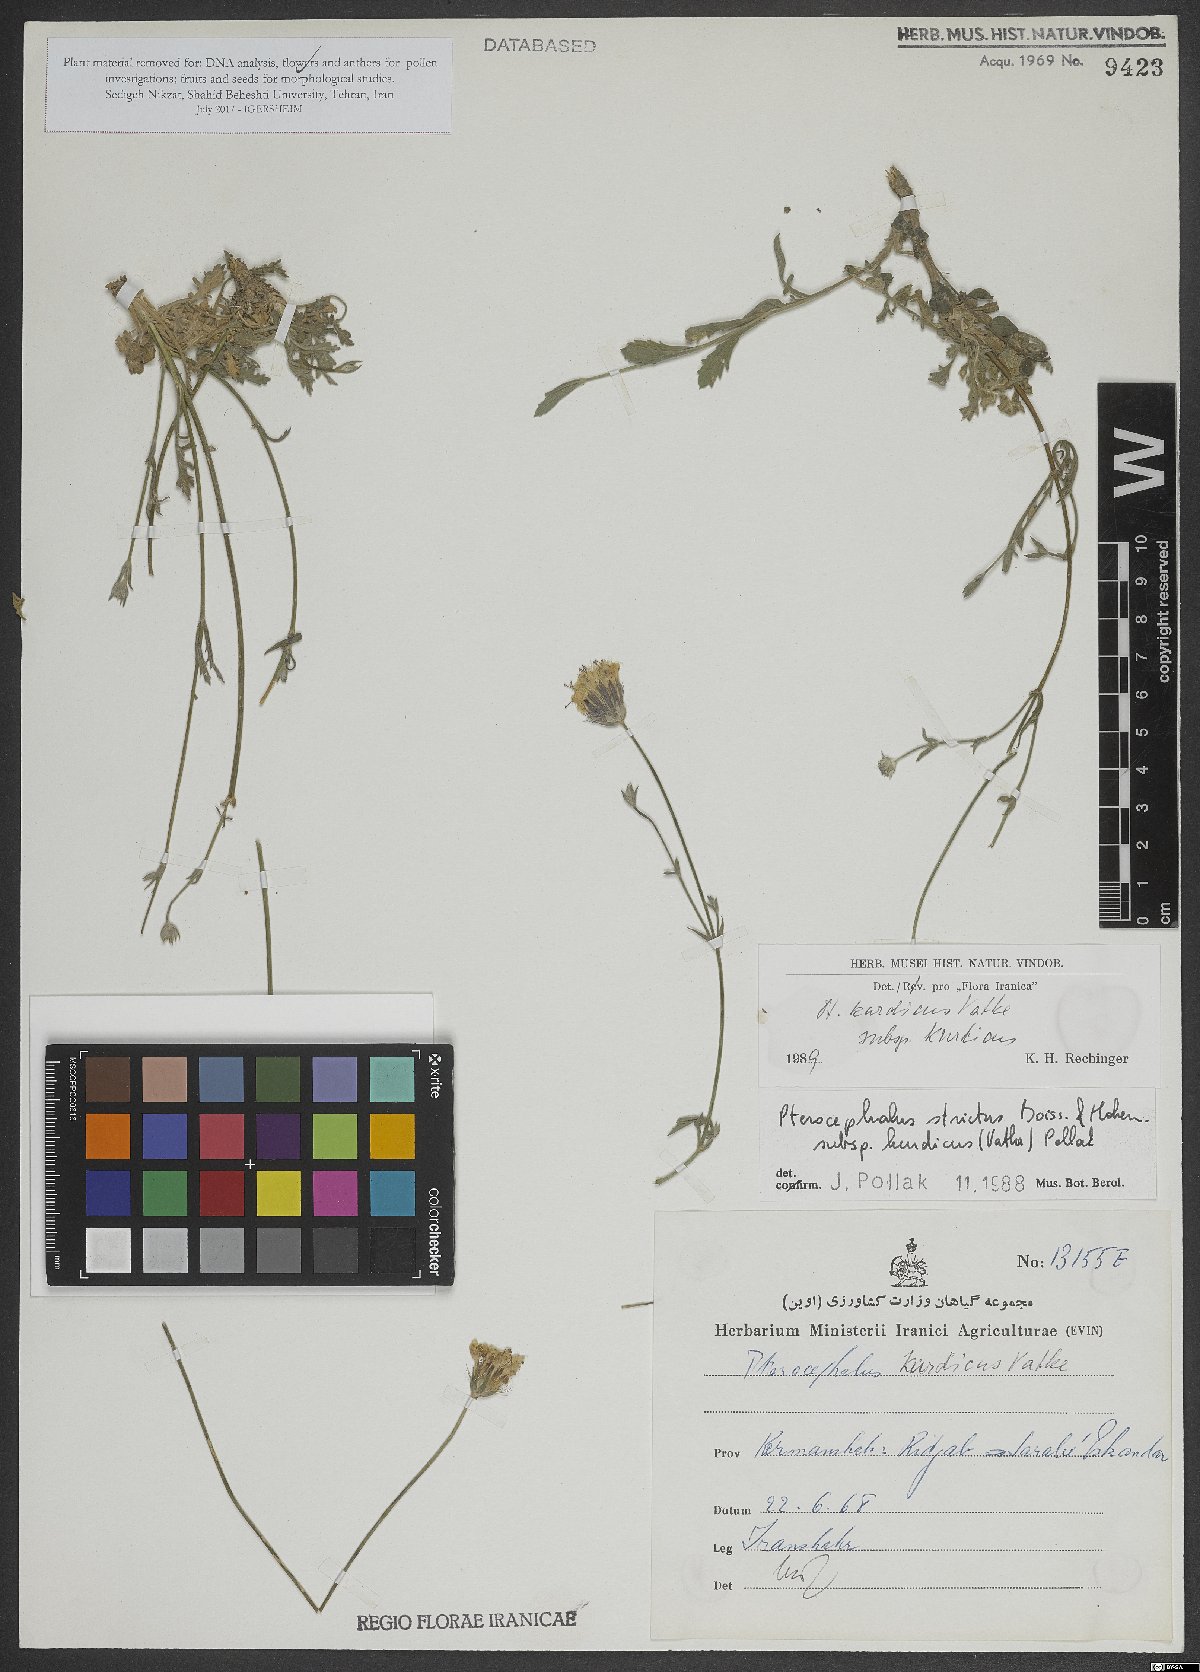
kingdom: Plantae
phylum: Tracheophyta
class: Magnoliopsida
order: Dipsacales
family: Caprifoliaceae
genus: Pterocephalus
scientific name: Pterocephalus kurdicus
